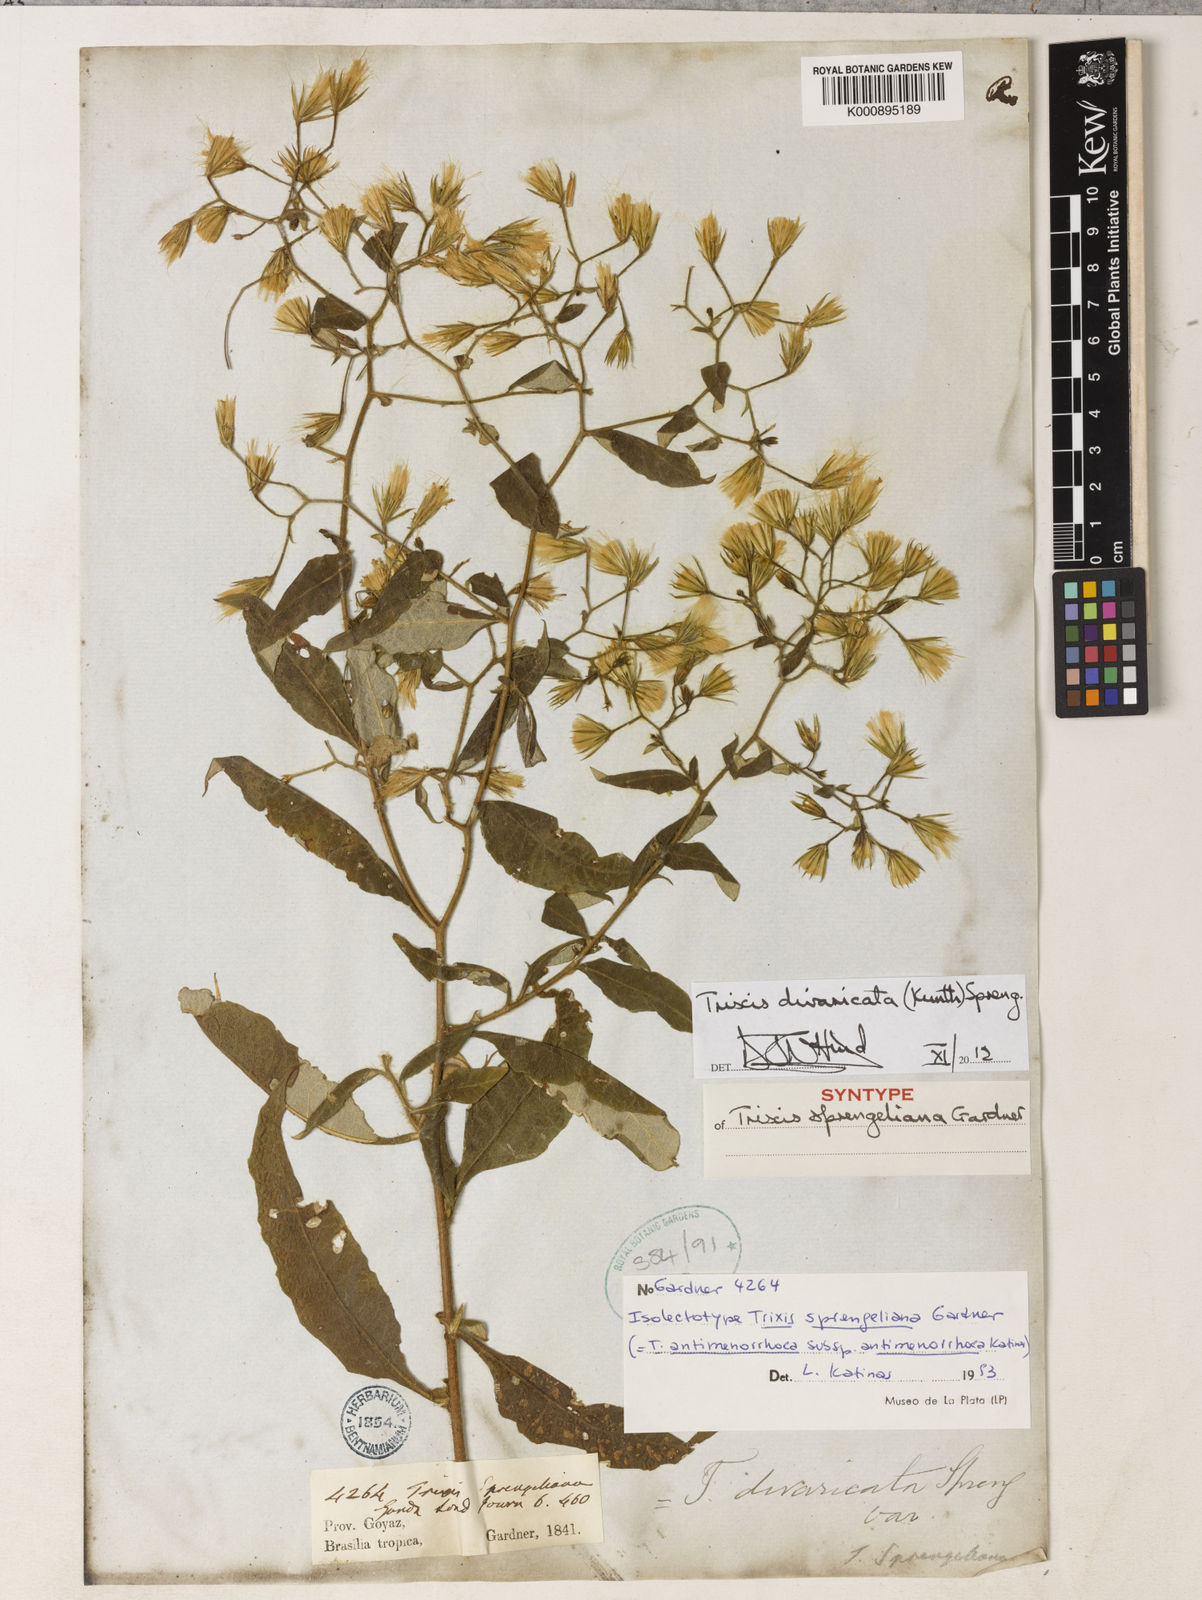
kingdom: Plantae
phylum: Tracheophyta
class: Magnoliopsida
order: Asterales
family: Asteraceae
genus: Trixis
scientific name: Trixis divaricata
